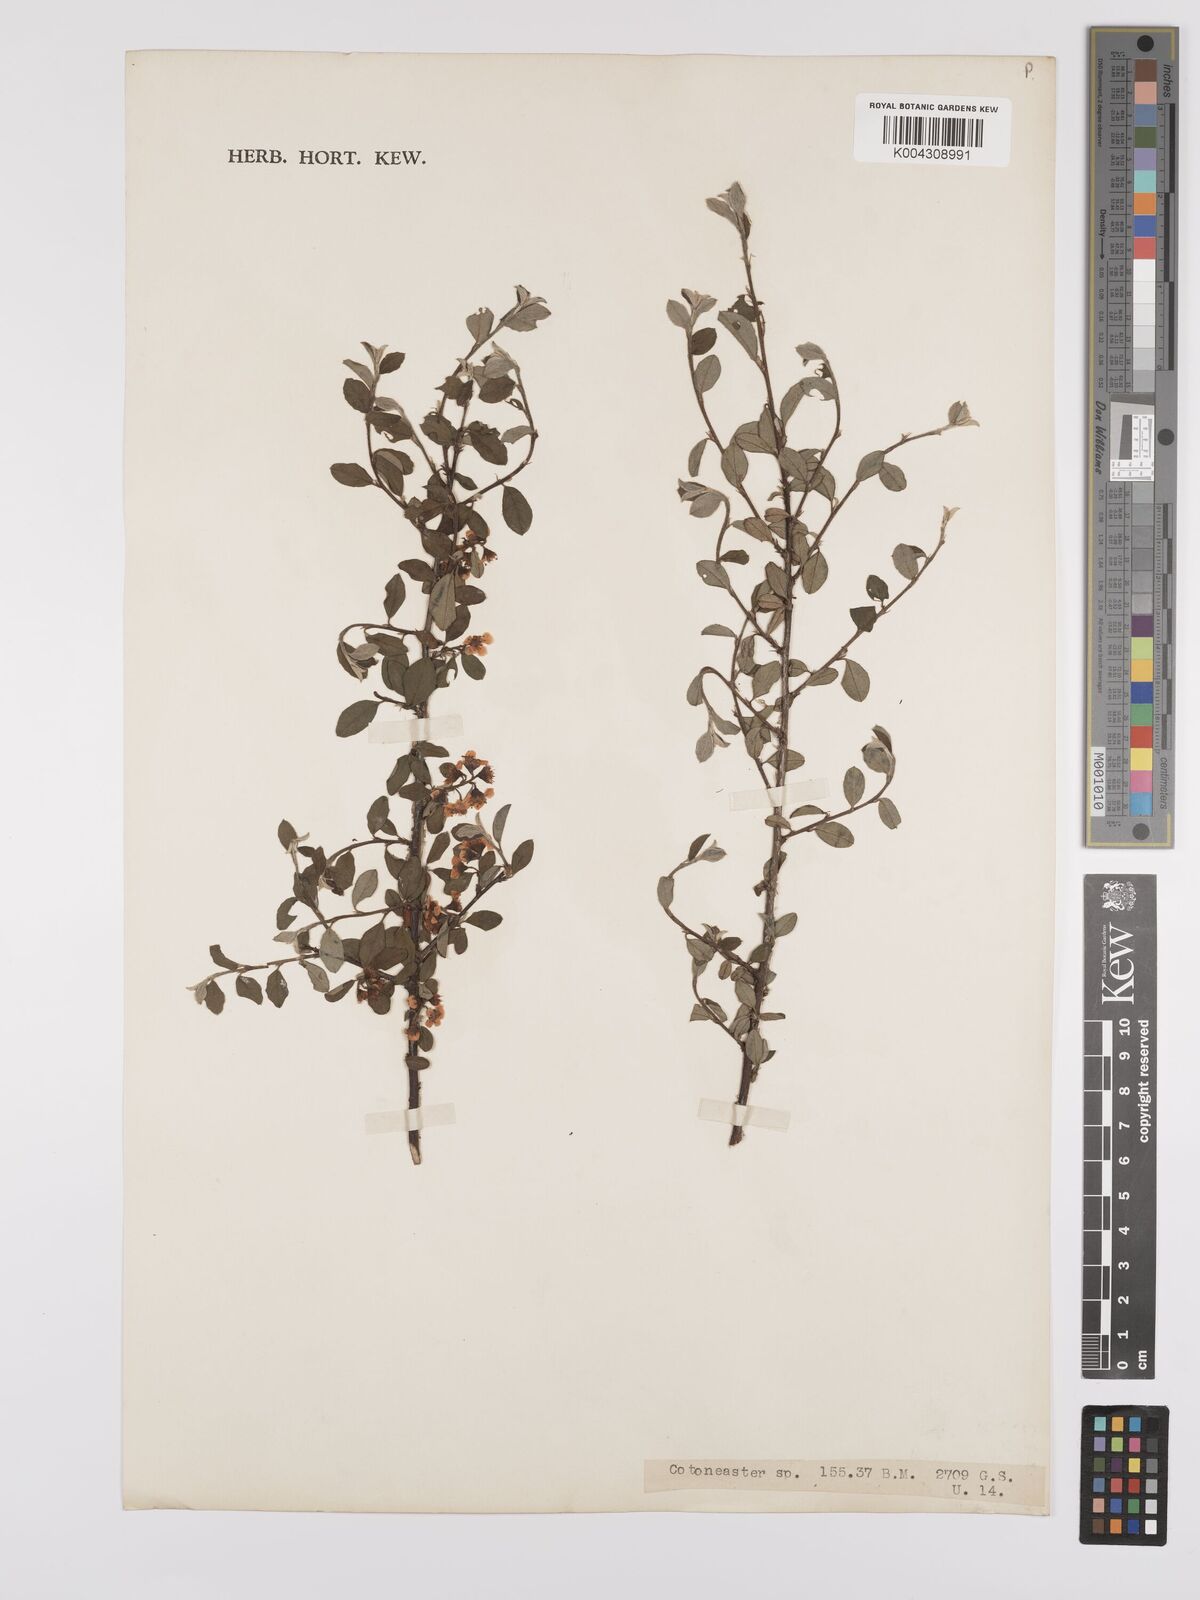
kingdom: Plantae
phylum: Tracheophyta
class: Magnoliopsida
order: Rosales
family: Rosaceae
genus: Cotoneaster
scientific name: Cotoneaster
